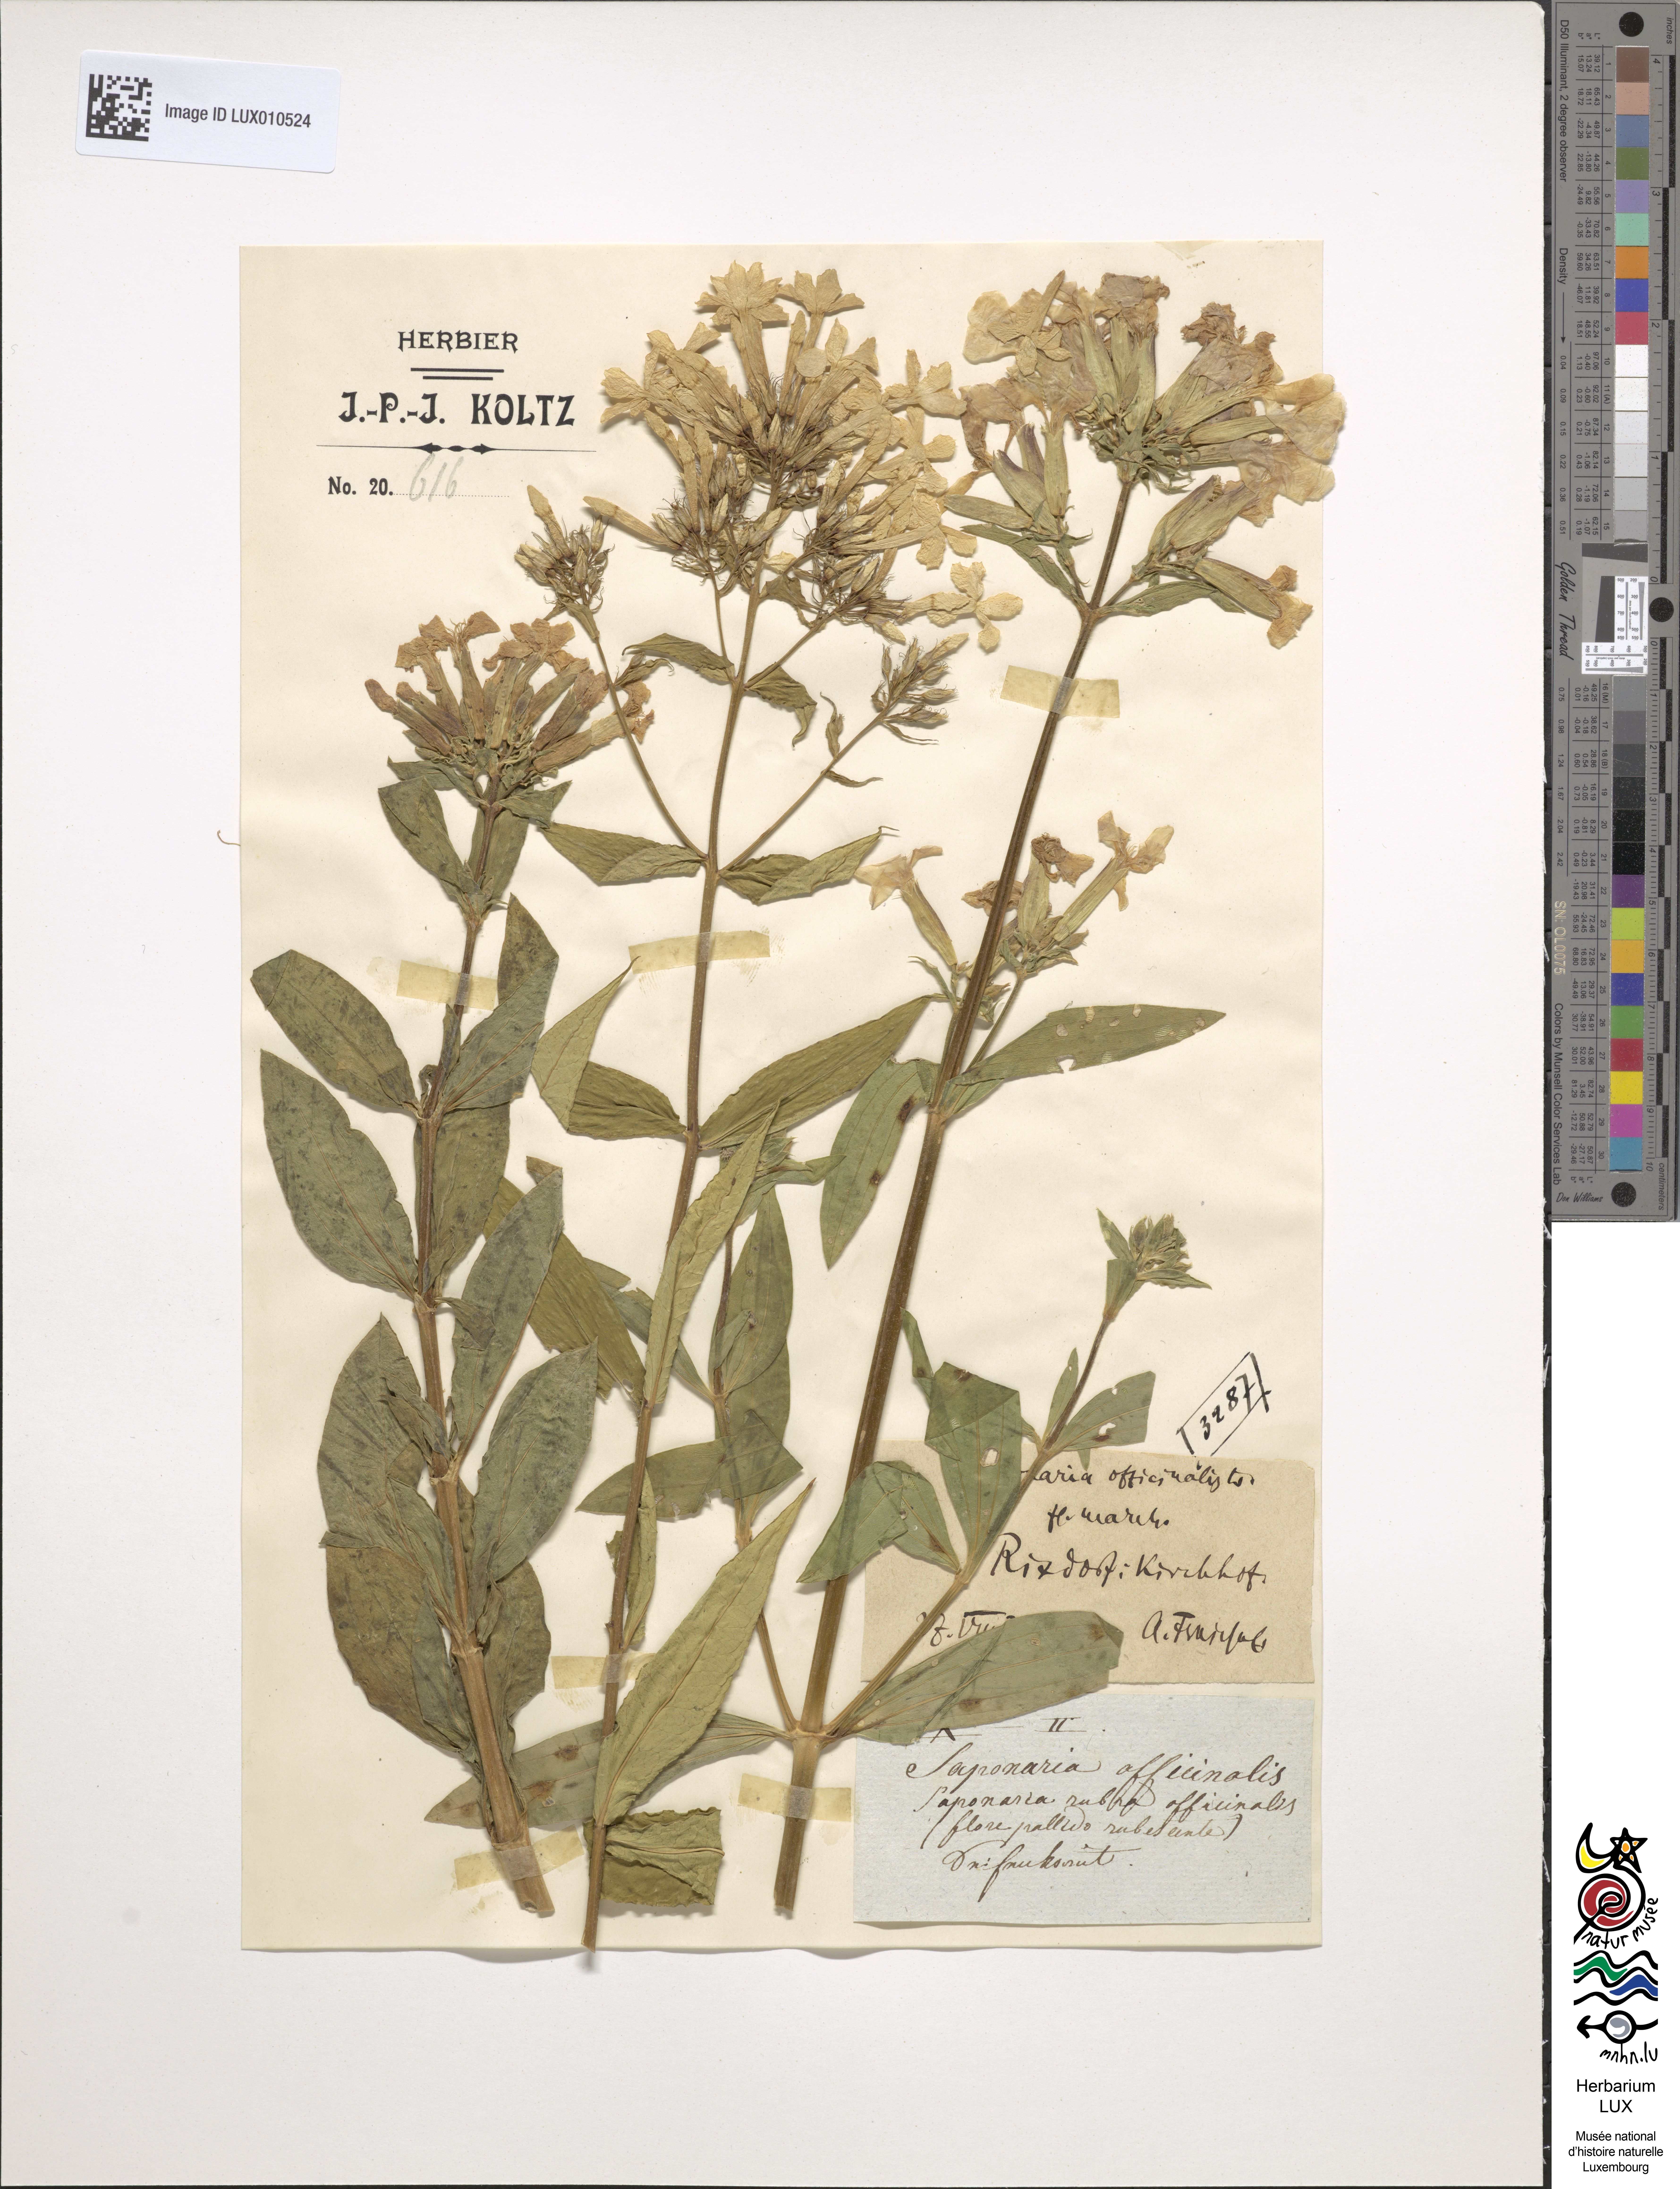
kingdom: Plantae
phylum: Tracheophyta
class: Magnoliopsida
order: Caryophyllales
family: Caryophyllaceae
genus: Saponaria
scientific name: Saponaria officinalis
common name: Soapwort
